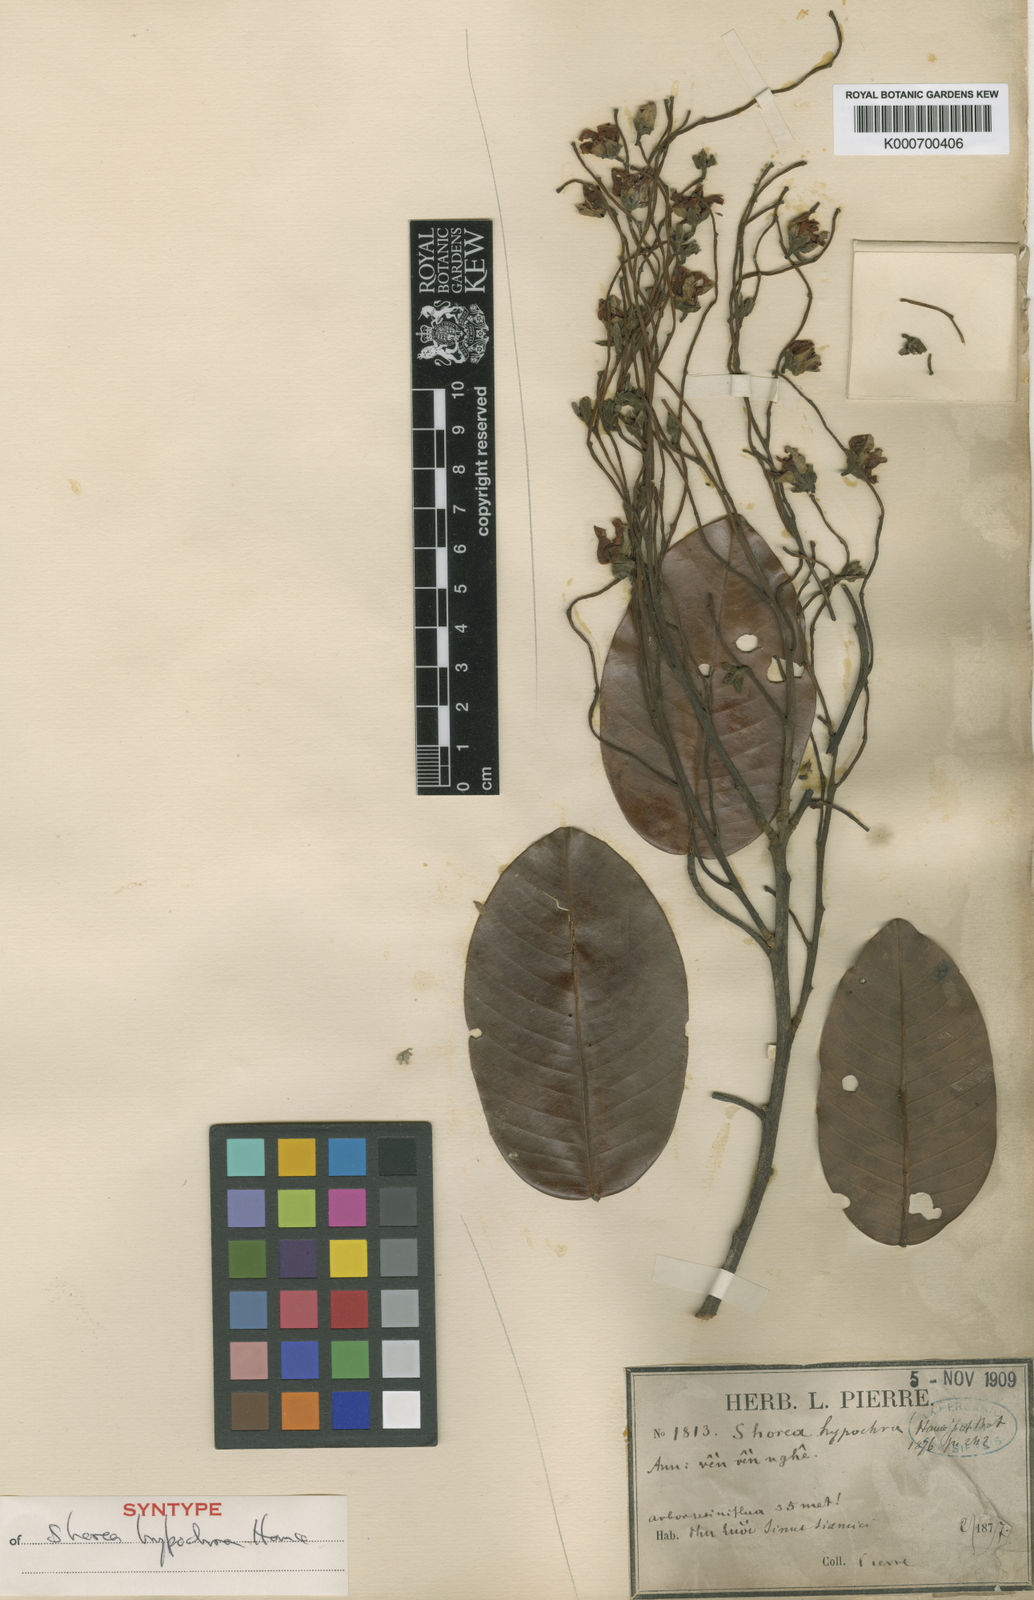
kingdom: Plantae
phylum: Tracheophyta
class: Magnoliopsida
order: Malvales
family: Dipterocarpaceae
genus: Anthoshorea
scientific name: Anthoshorea hypochra
